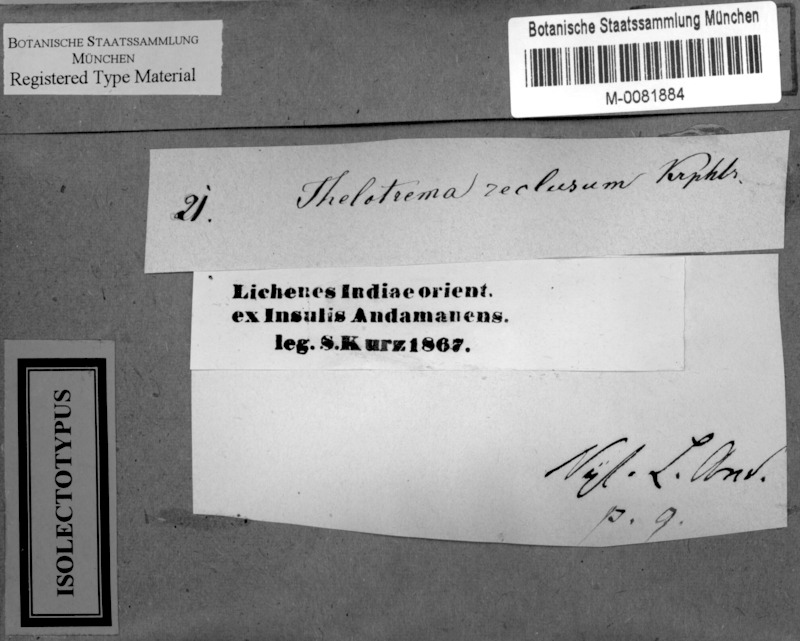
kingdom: Fungi
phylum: Ascomycota
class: Lecanoromycetes
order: Ostropales
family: Graphidaceae
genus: Leucodecton
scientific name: Leucodecton compunctellum
